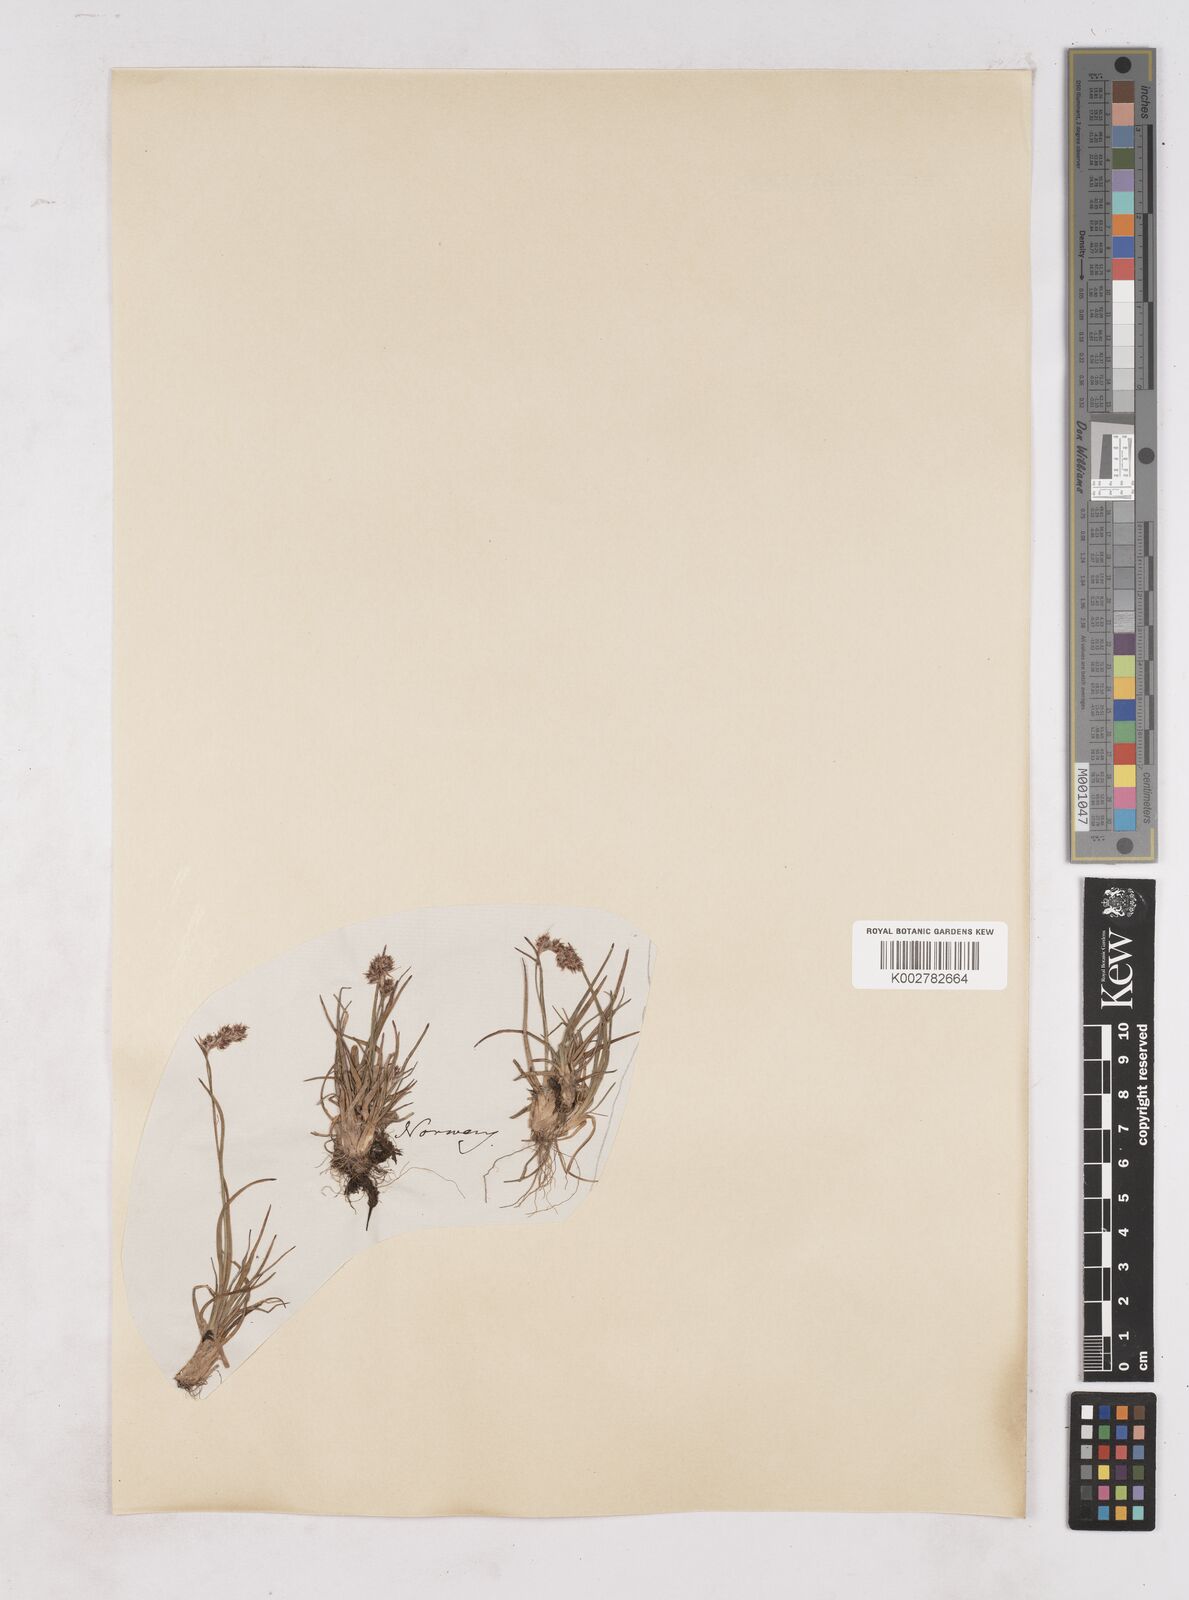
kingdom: Plantae
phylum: Tracheophyta
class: Liliopsida
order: Poales
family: Juncaceae
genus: Luzula
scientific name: Luzula spicata
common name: Spiked wood-rush
